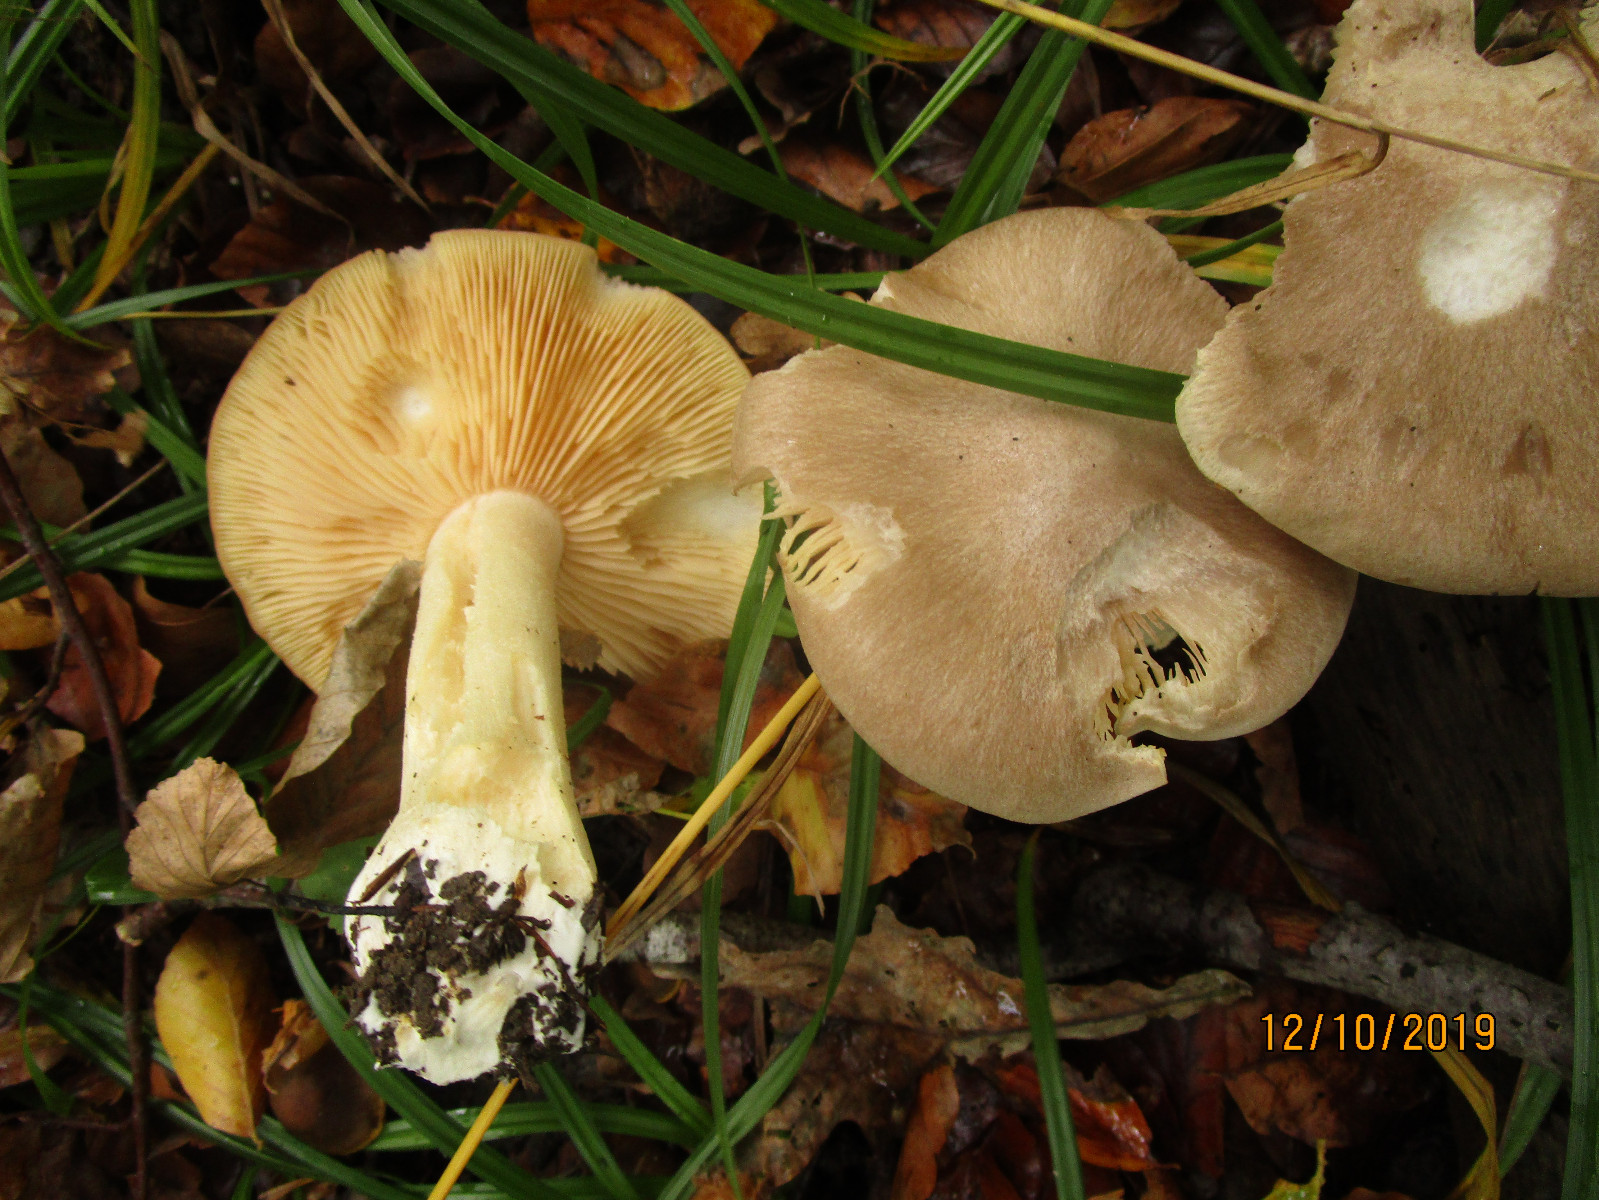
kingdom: Fungi
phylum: Basidiomycota
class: Agaricomycetes
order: Agaricales
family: Entolomataceae
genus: Entoloma
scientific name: Entoloma sinuatum
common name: giftig rødblad
